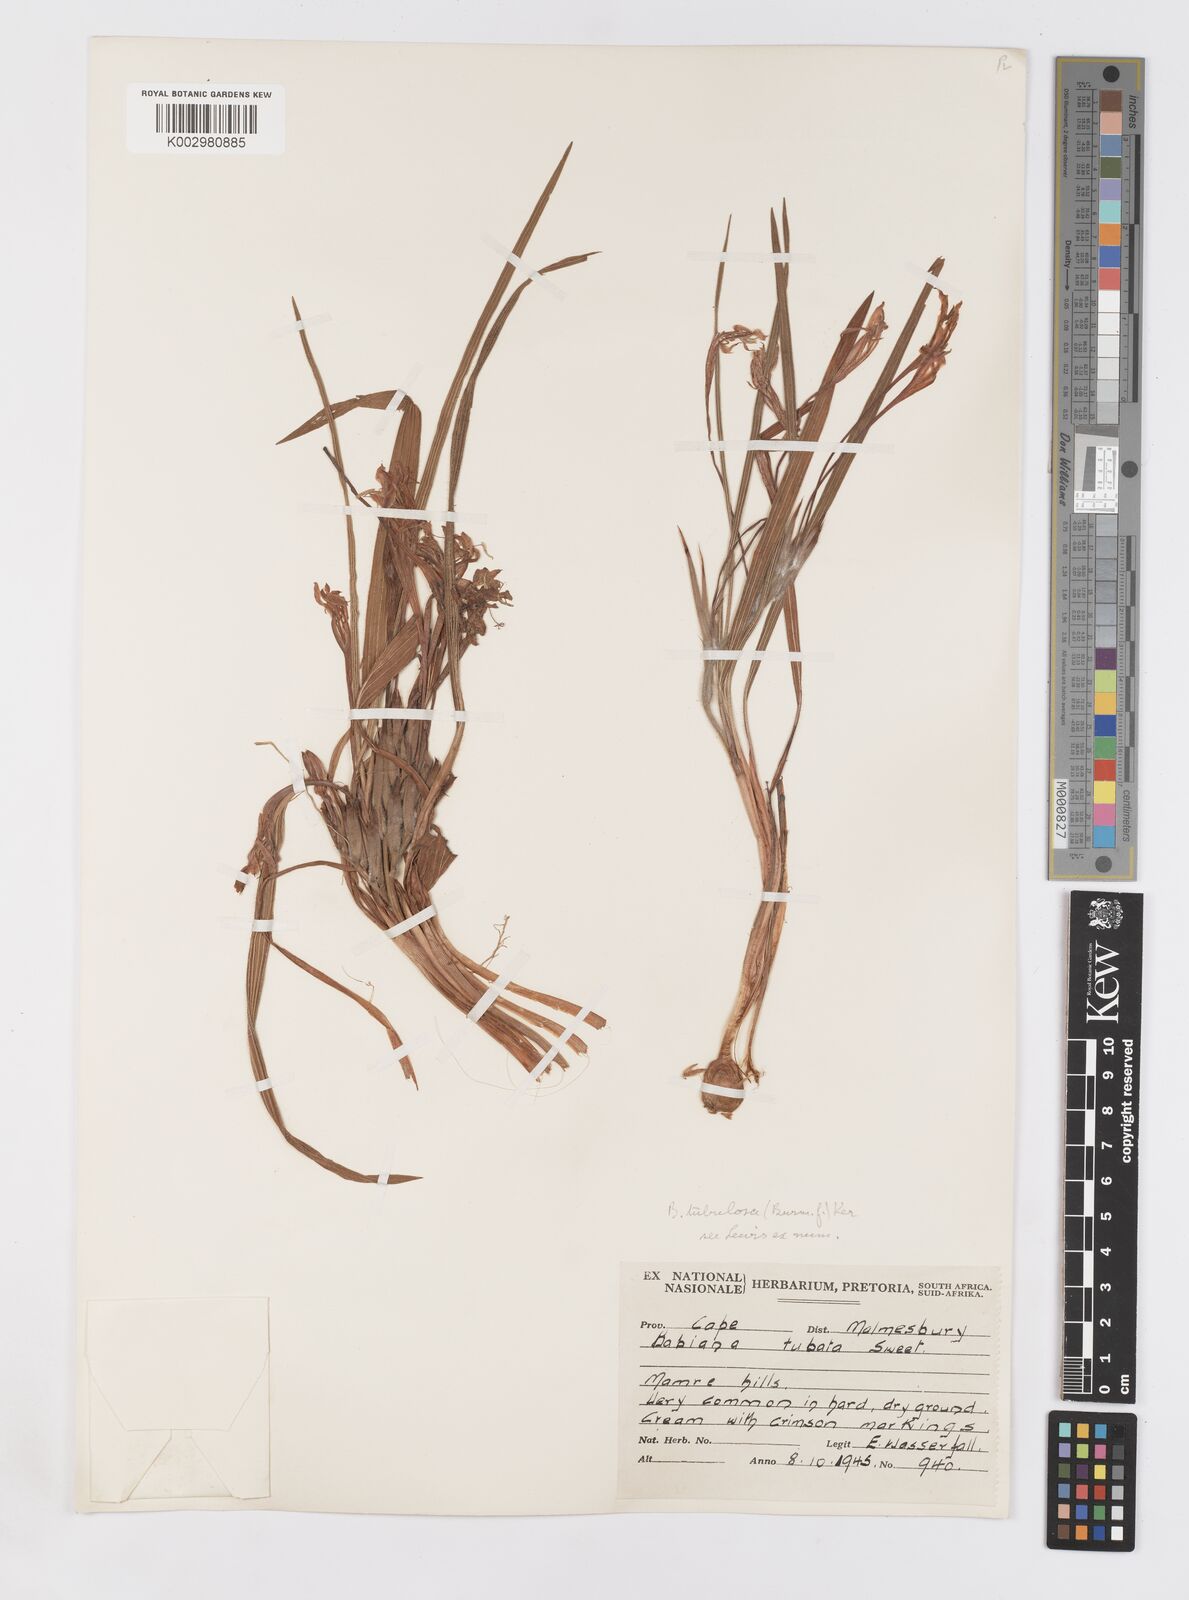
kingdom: Plantae
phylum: Tracheophyta
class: Liliopsida
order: Asparagales
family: Iridaceae
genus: Babiana
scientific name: Babiana tubulosa
